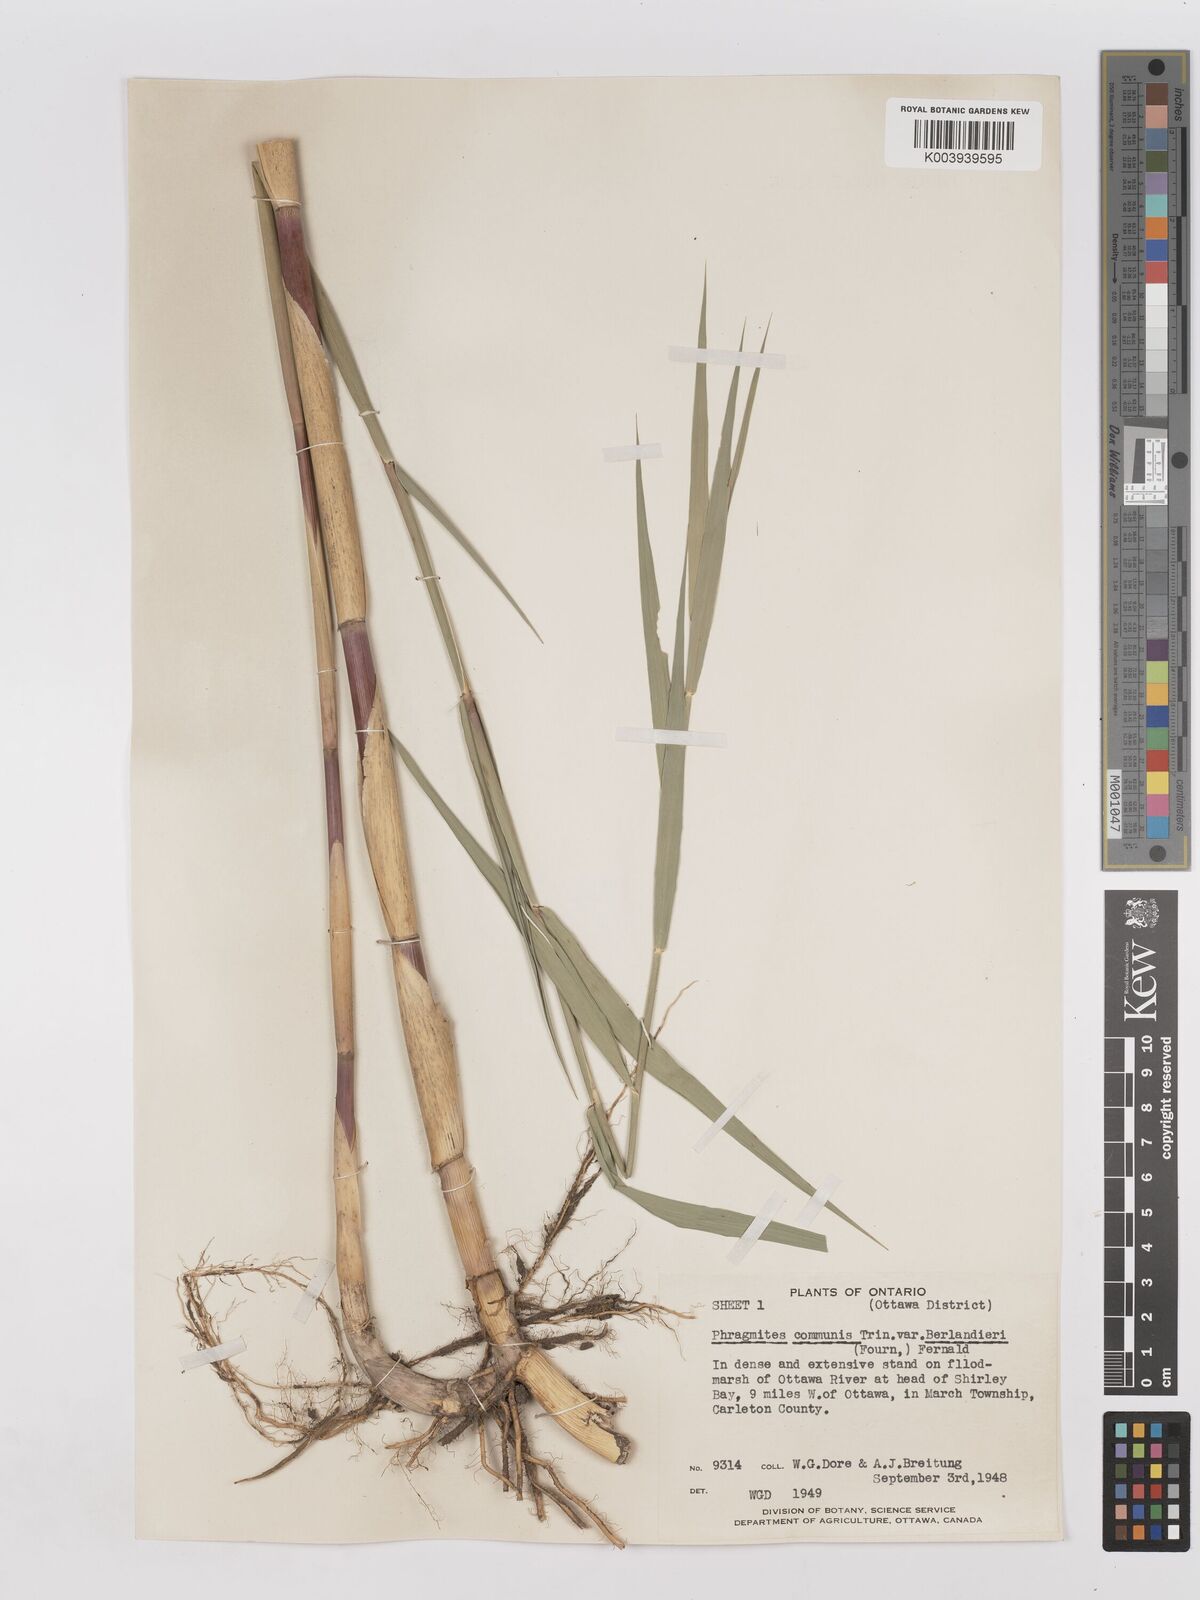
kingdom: Plantae
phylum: Tracheophyta
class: Liliopsida
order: Poales
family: Poaceae
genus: Phragmites
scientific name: Phragmites australis
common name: Common reed
